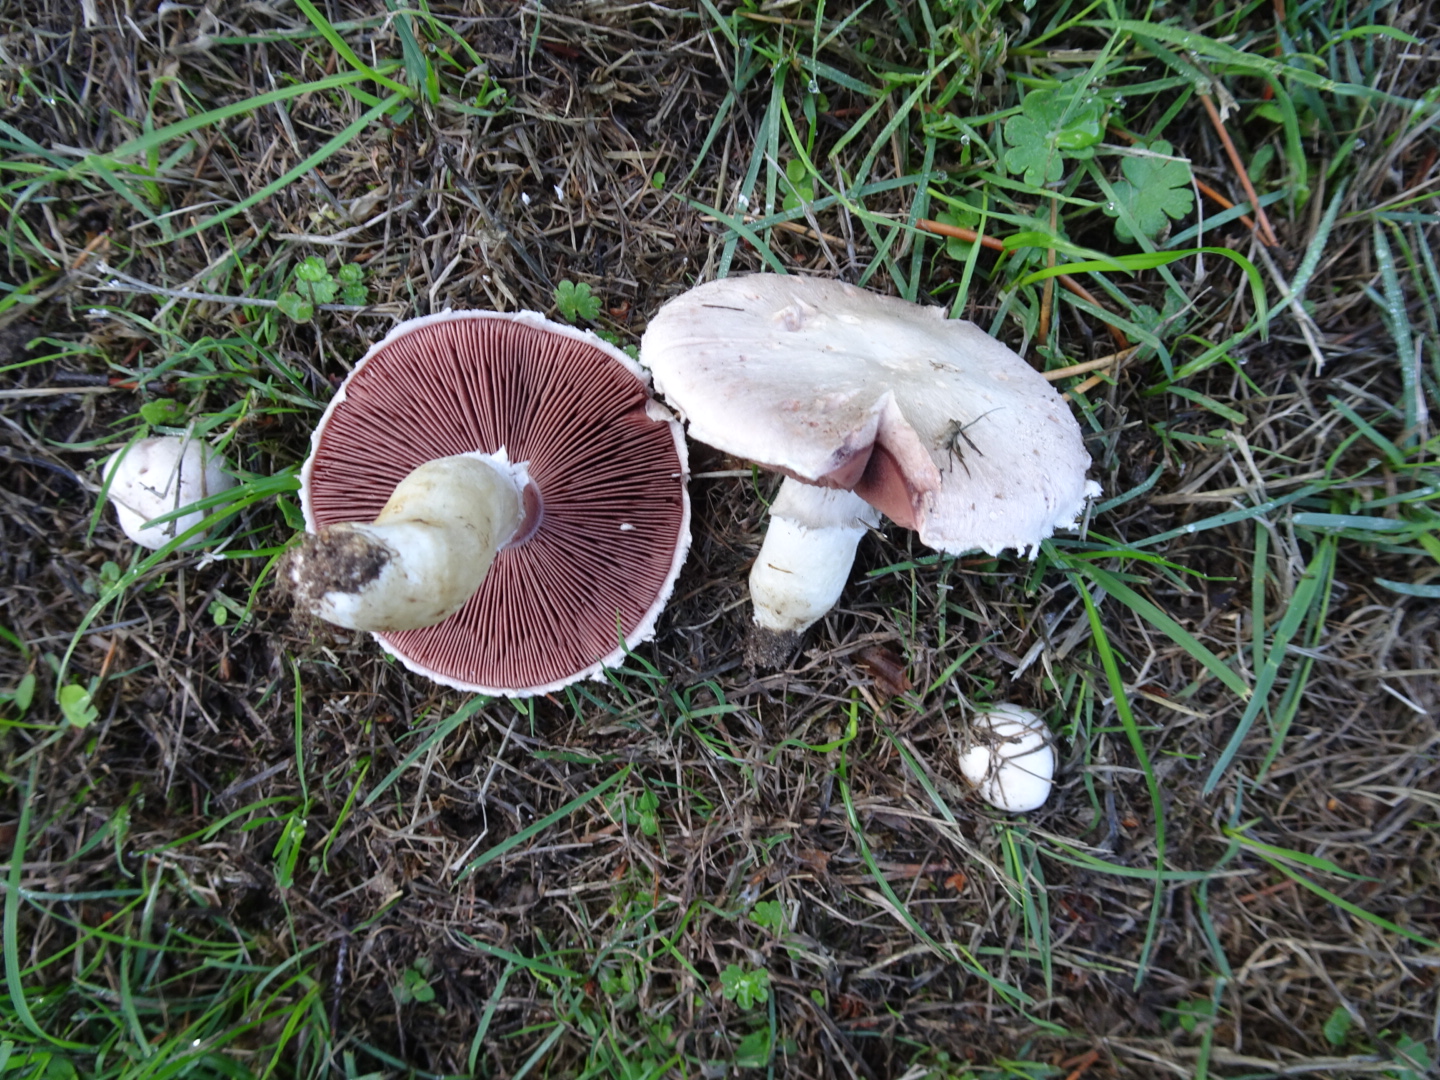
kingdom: Fungi
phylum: Basidiomycota
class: Agaricomycetes
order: Agaricales
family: Agaricaceae
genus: Agaricus
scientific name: Agaricus campestris
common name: mark-champignon
